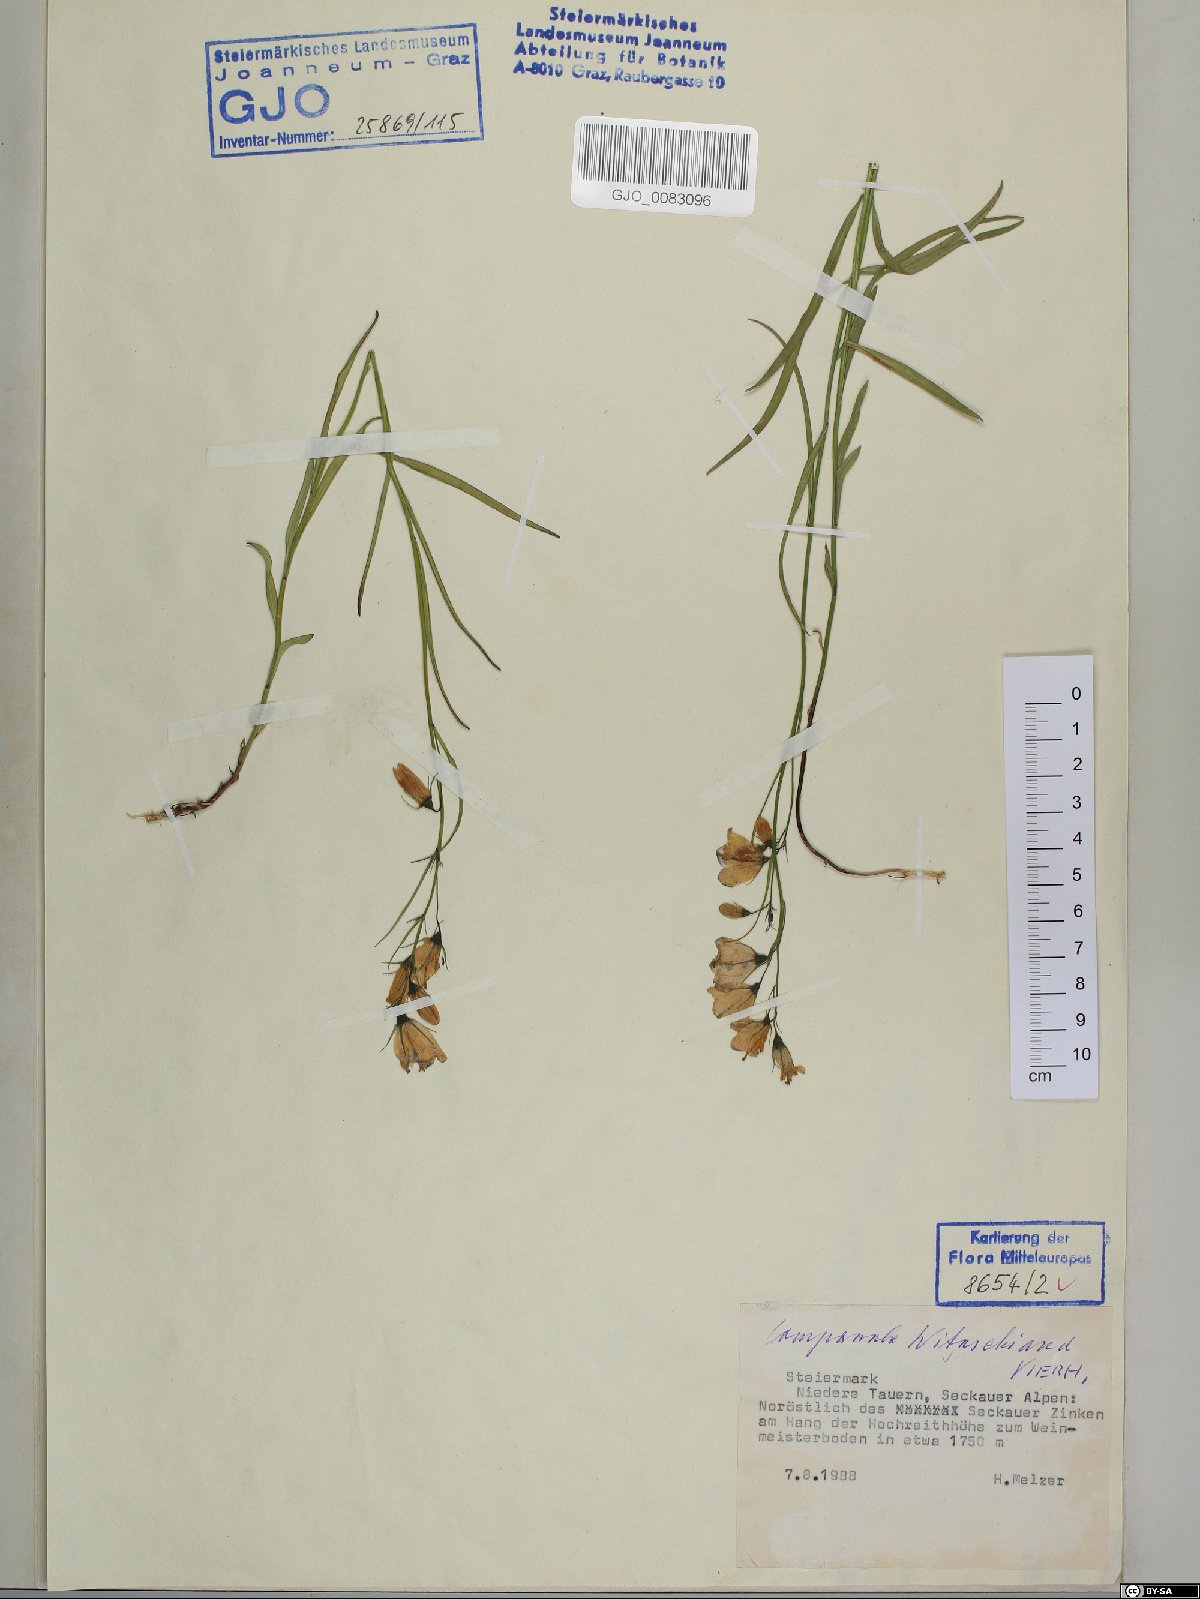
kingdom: Plantae
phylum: Tracheophyta
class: Magnoliopsida
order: Asterales
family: Campanulaceae
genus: Campanula
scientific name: Campanula witasekiana
